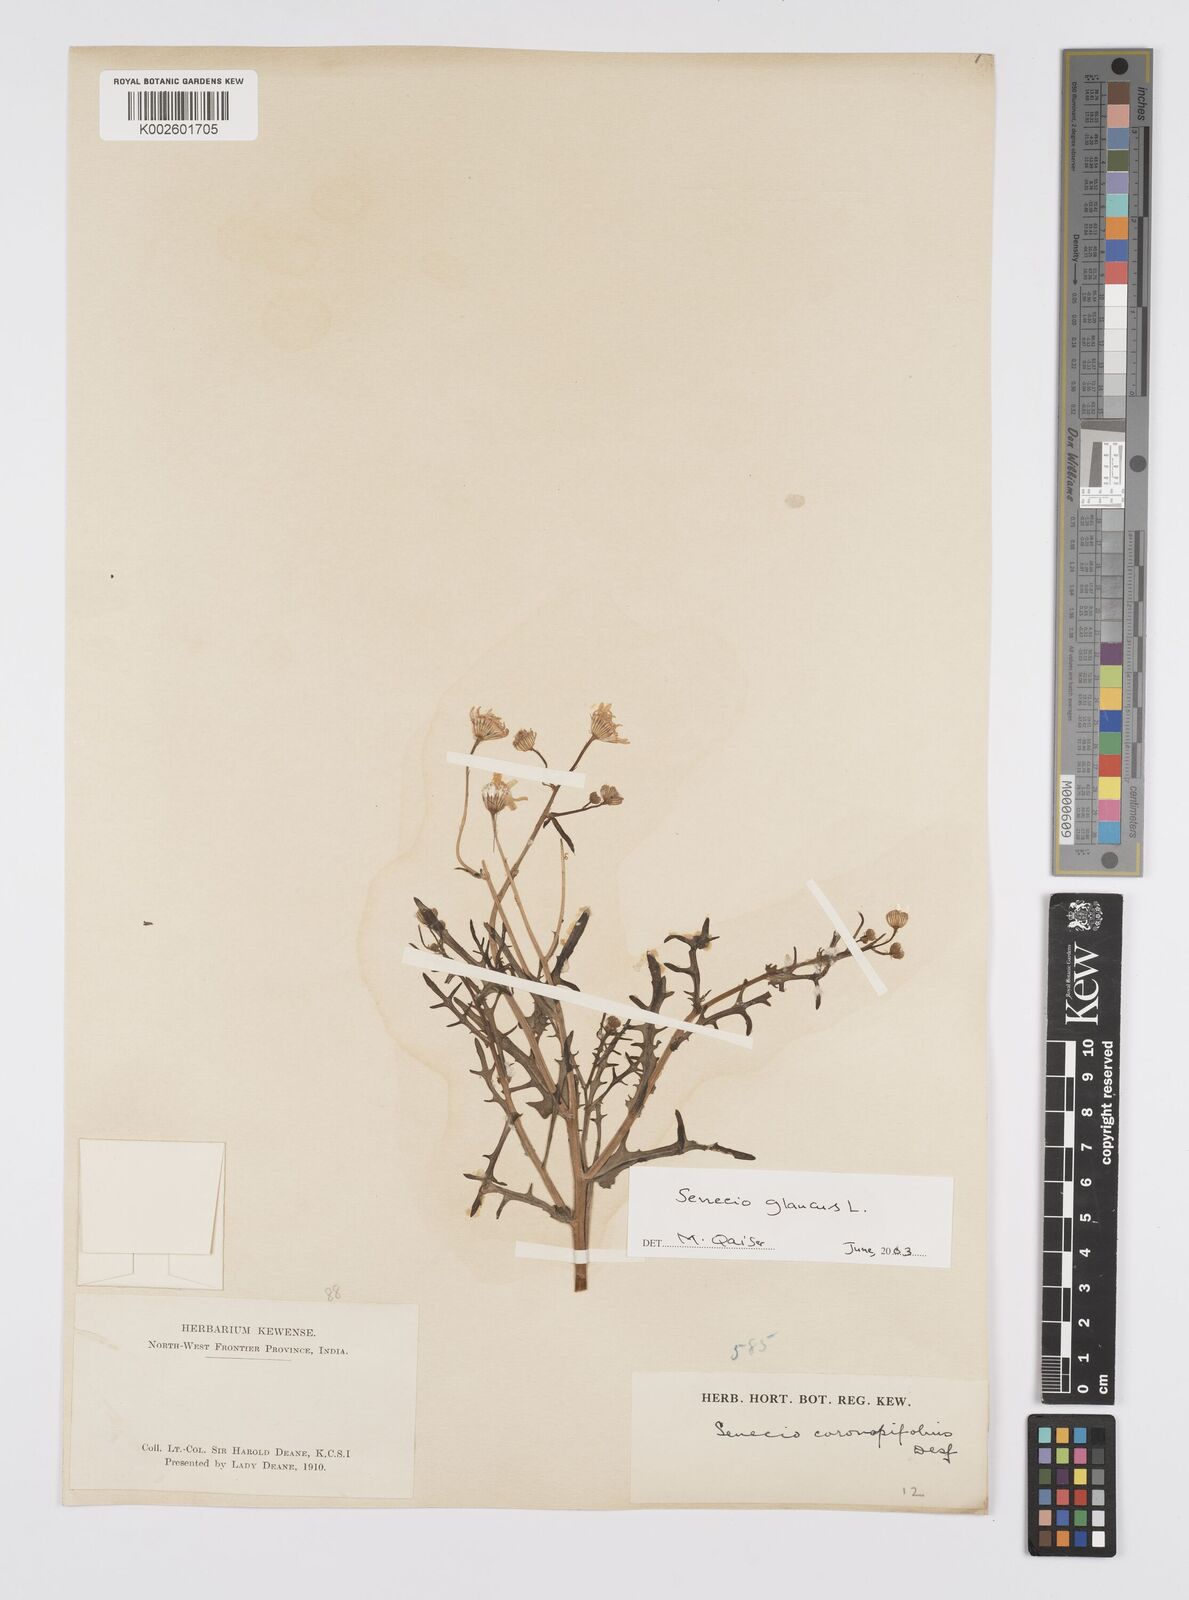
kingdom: Plantae
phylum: Tracheophyta
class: Magnoliopsida
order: Asterales
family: Asteraceae
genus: Senecio
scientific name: Senecio glaucus
